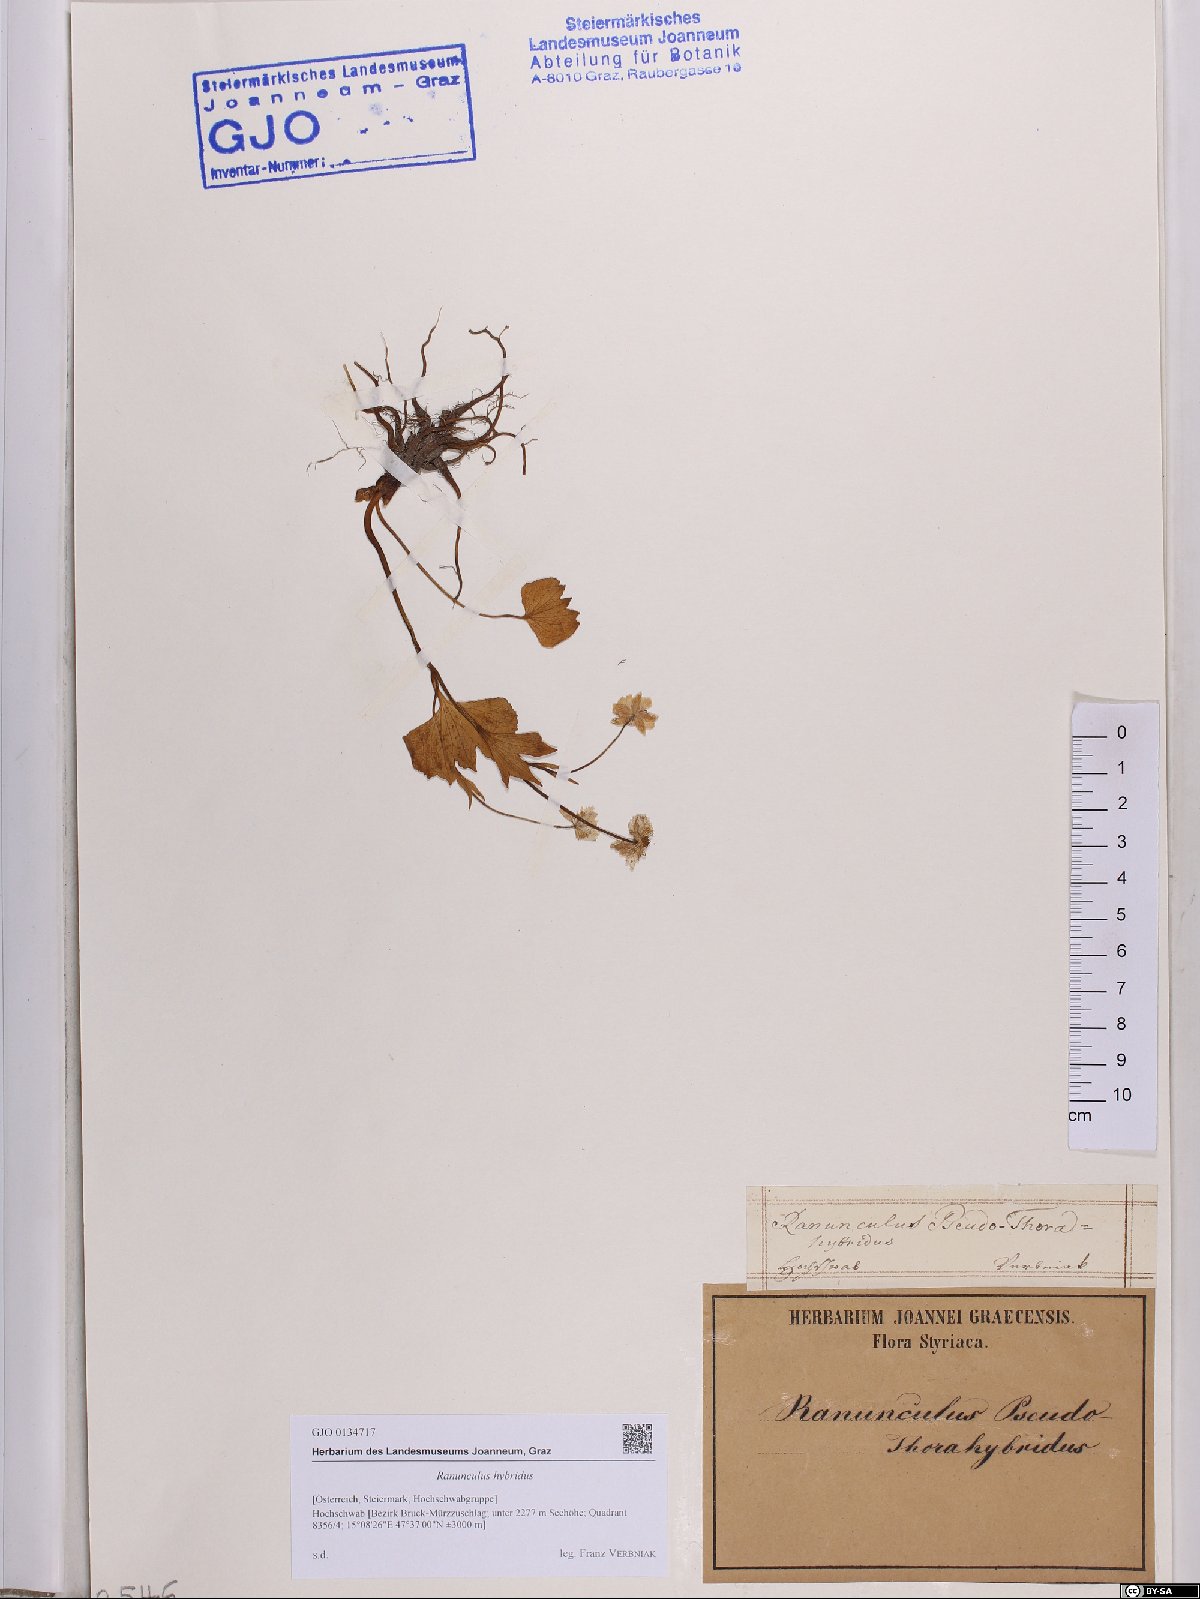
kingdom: Plantae
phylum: Tracheophyta
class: Magnoliopsida
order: Ranunculales
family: Ranunculaceae
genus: Ranunculus
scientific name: Ranunculus hybridus
